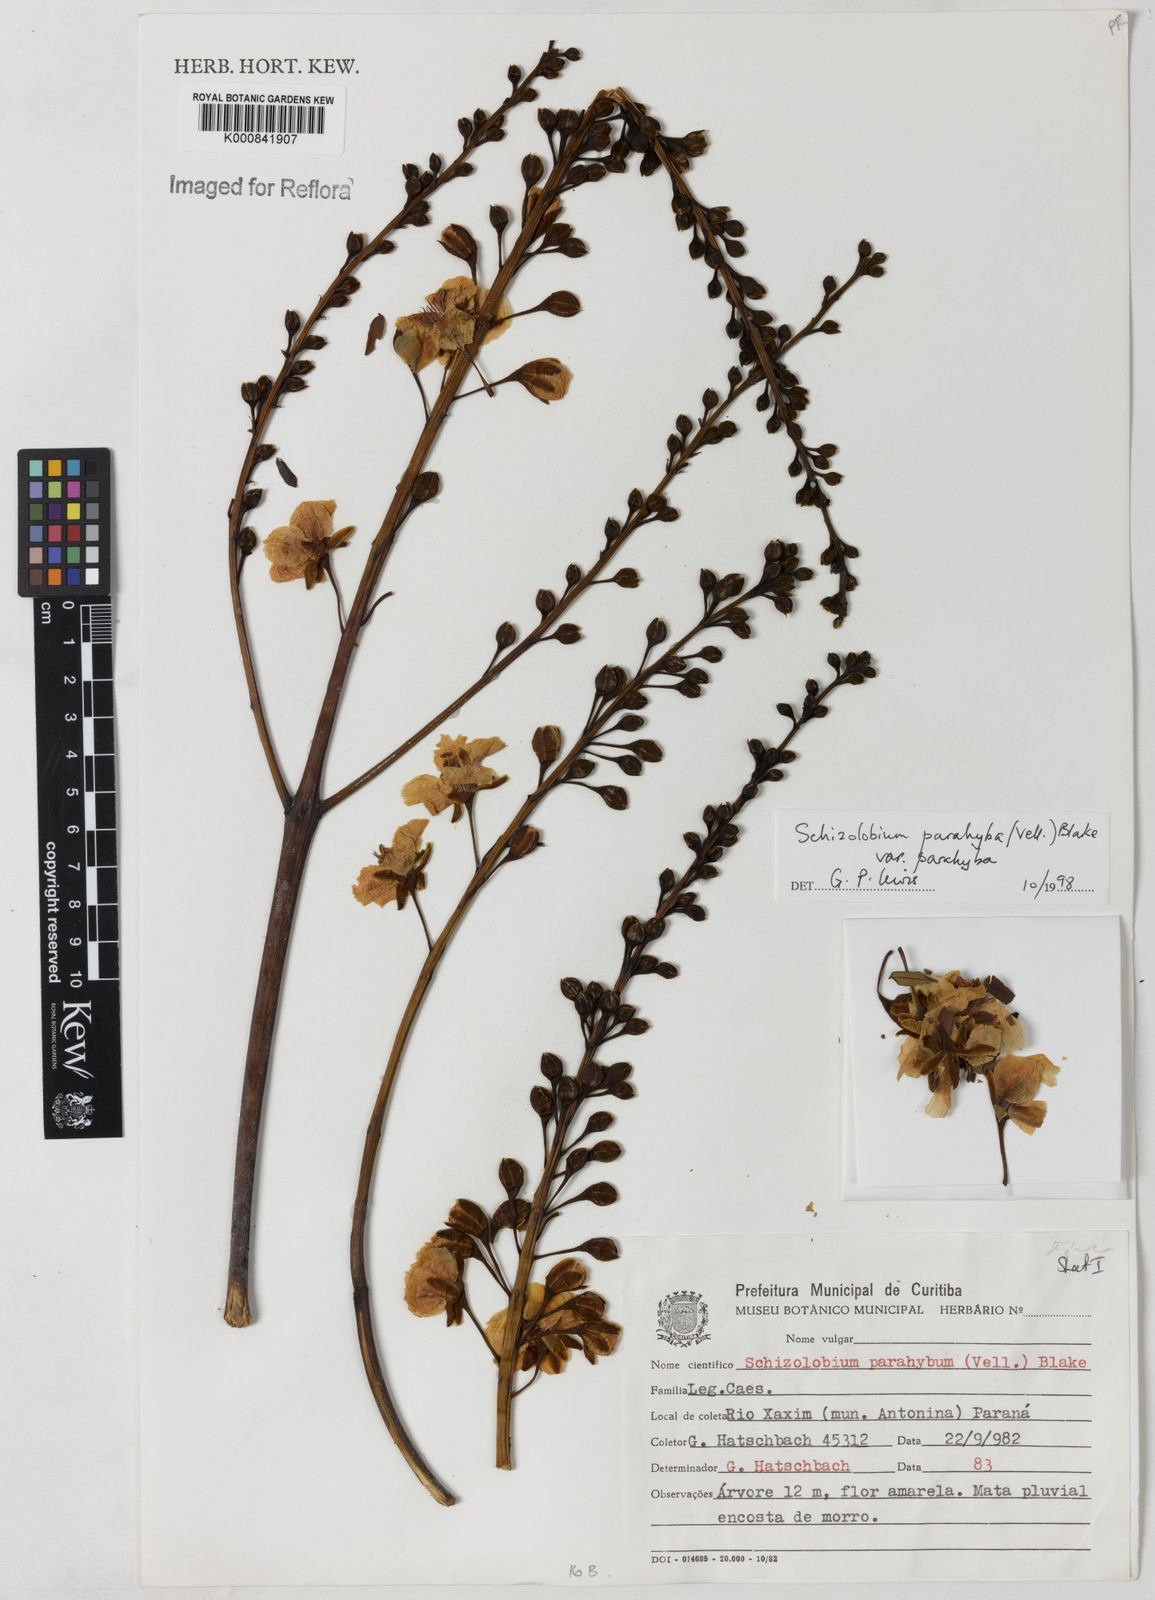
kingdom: Plantae
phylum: Tracheophyta
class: Magnoliopsida
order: Fabales
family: Fabaceae
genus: Schizolobium
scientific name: Schizolobium parahyba
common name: Brazilian firetree
